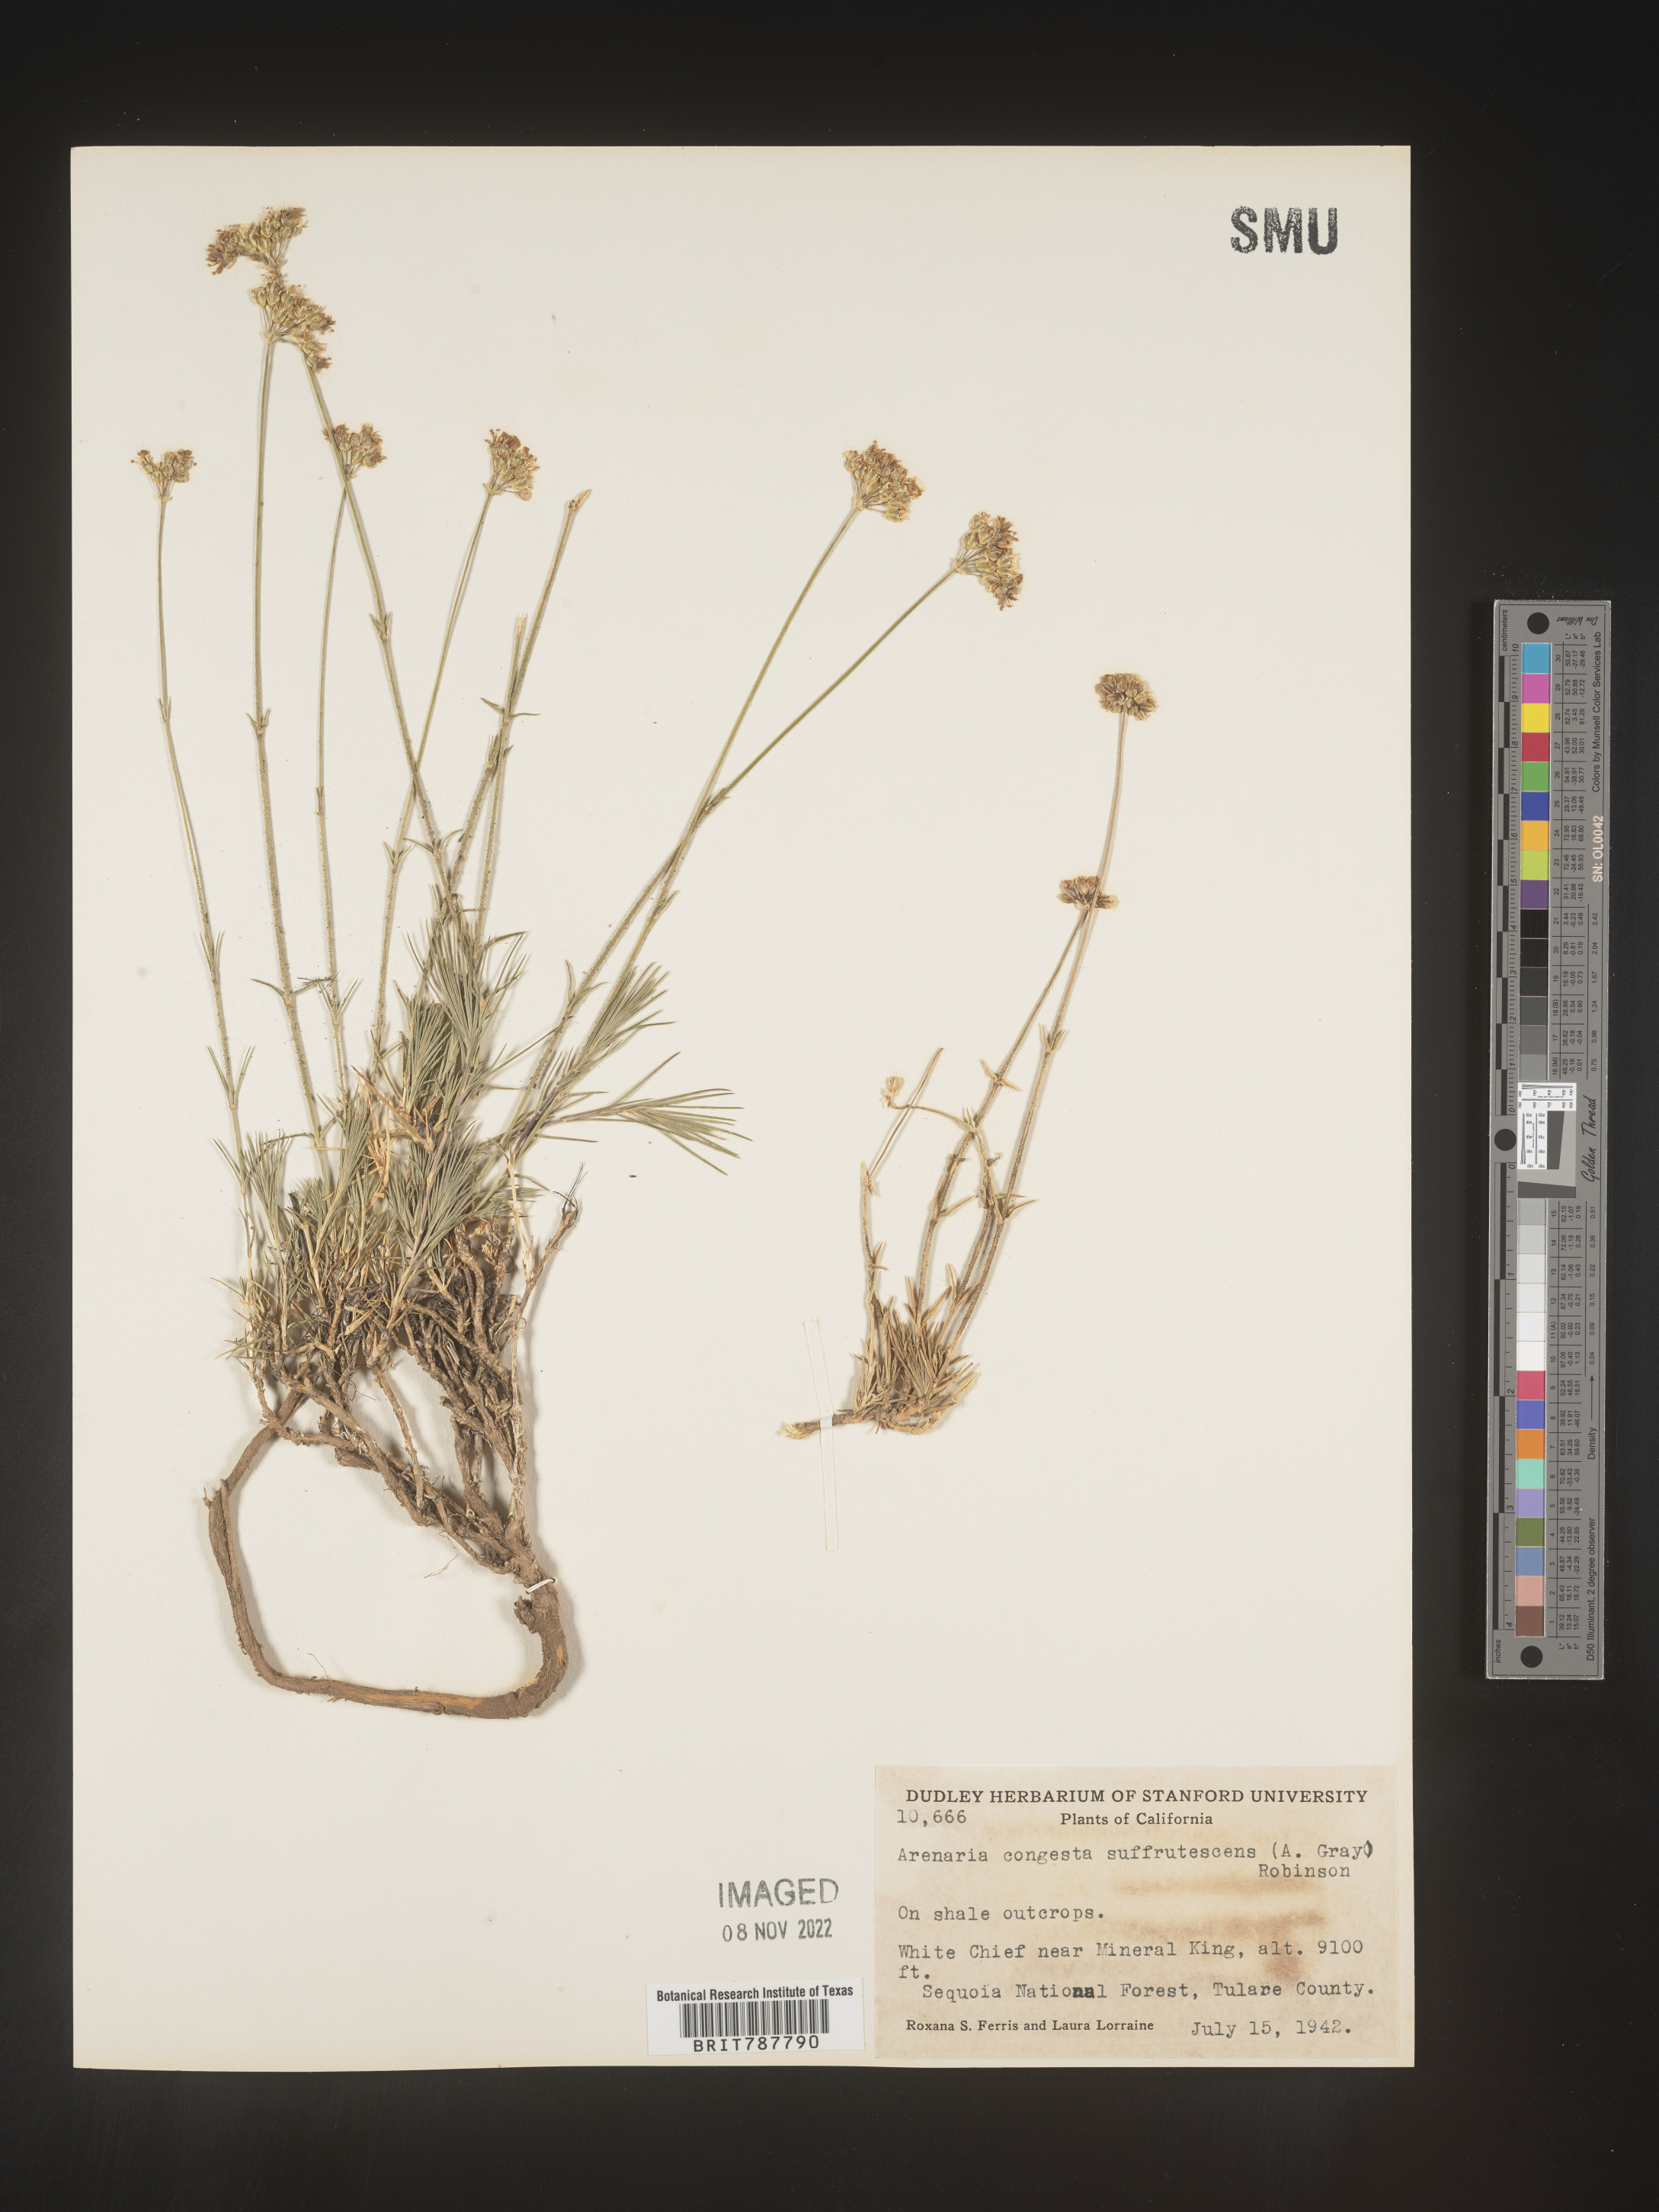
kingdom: Plantae
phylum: Tracheophyta
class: Magnoliopsida
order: Caryophyllales
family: Caryophyllaceae
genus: Eremogone
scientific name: Eremogone congesta
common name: Ballhead sandwort
